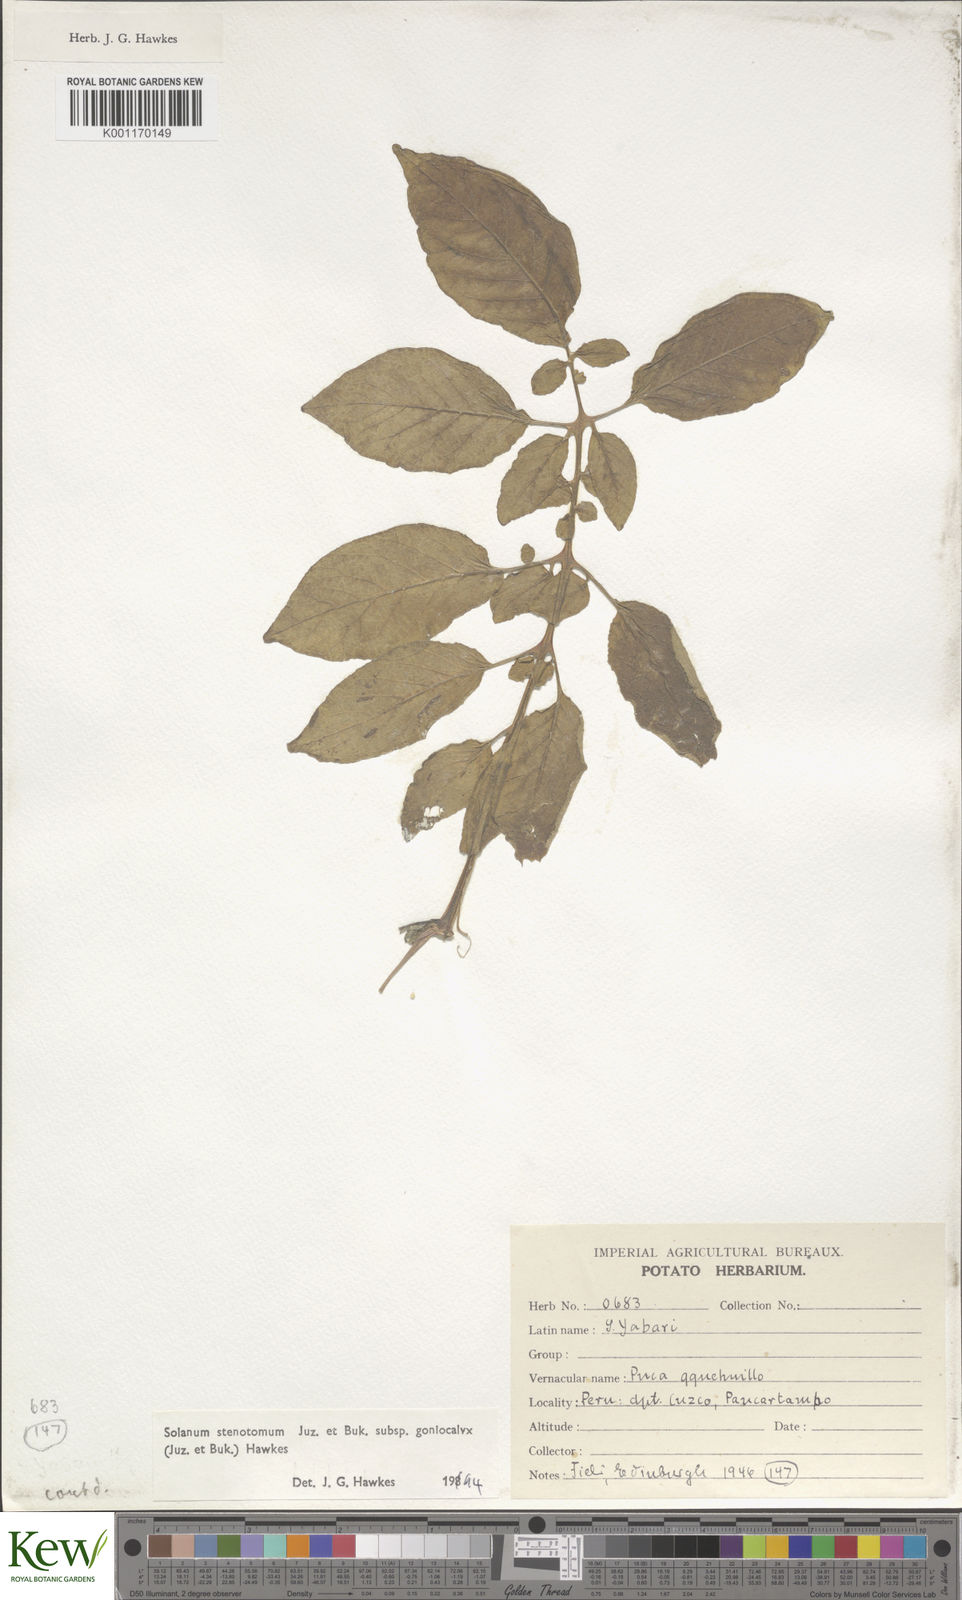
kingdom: Plantae
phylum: Tracheophyta
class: Magnoliopsida
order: Solanales
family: Solanaceae
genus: Solanum
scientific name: Solanum tuberosum
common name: Potato
